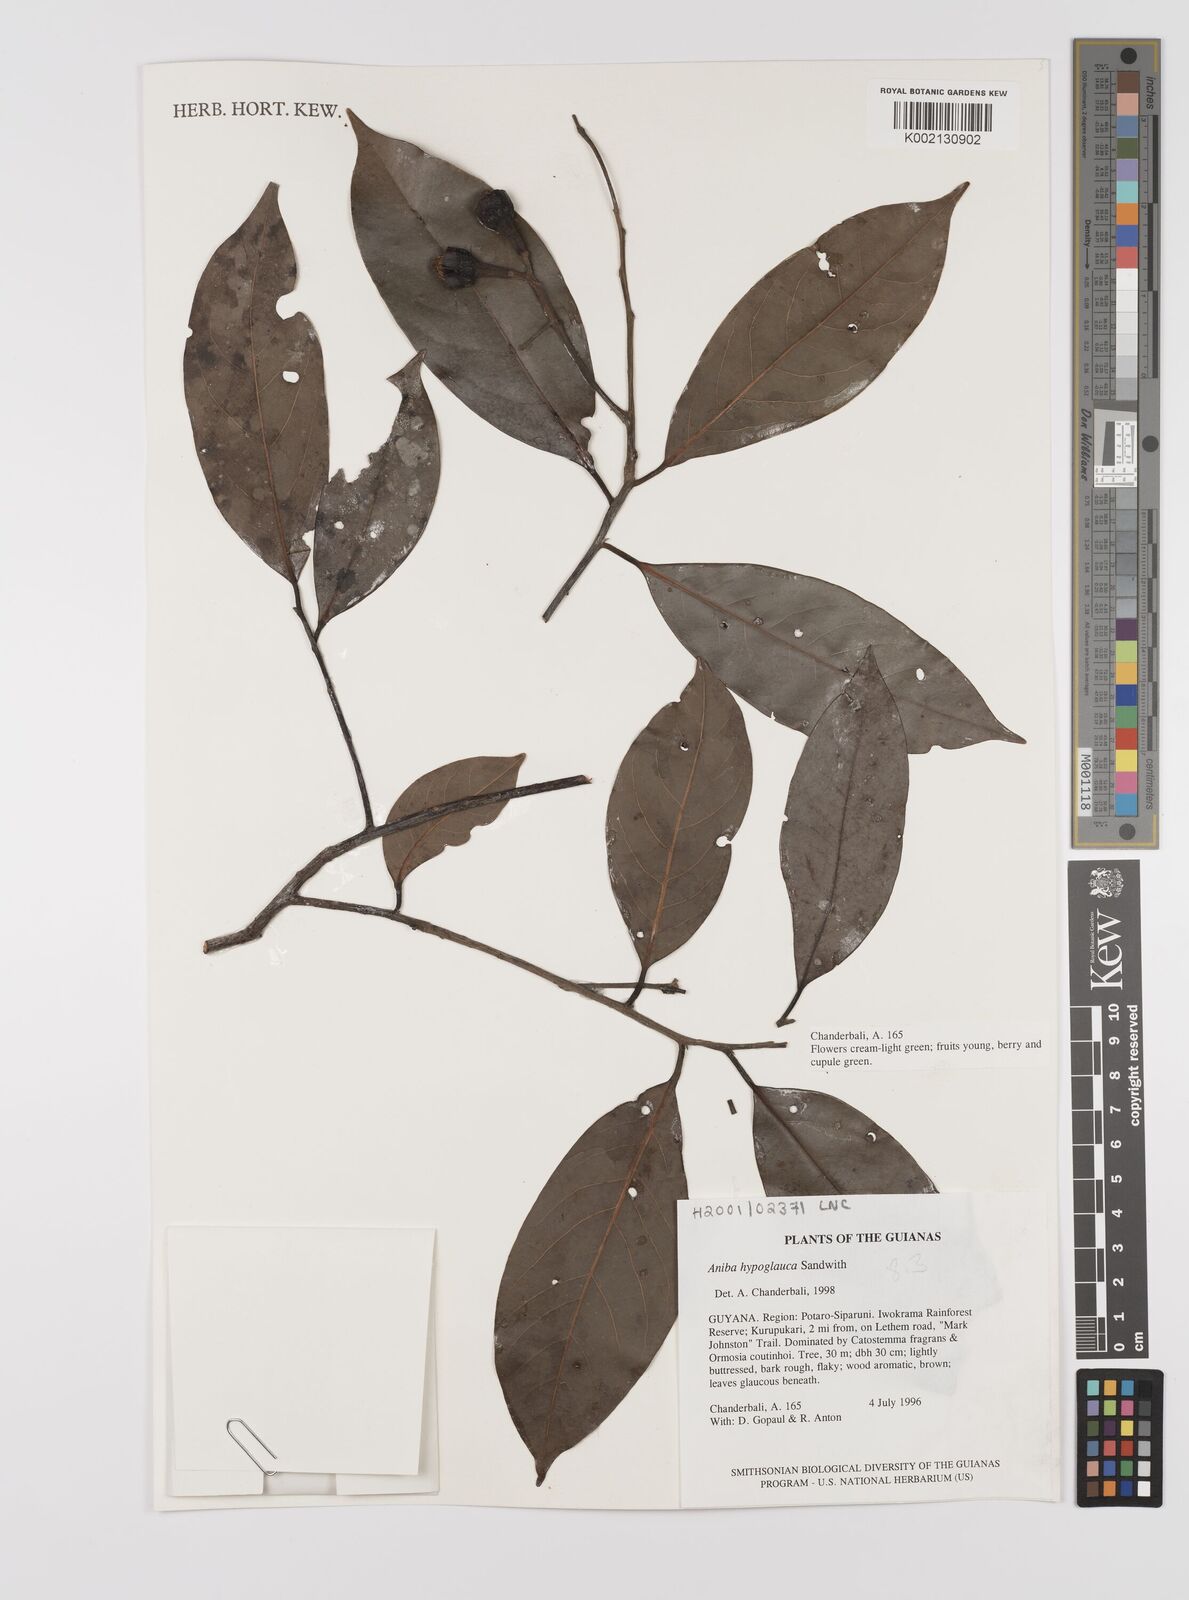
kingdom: Plantae
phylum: Tracheophyta
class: Magnoliopsida
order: Laurales
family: Lauraceae
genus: Aniba
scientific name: Aniba hypoglauca
